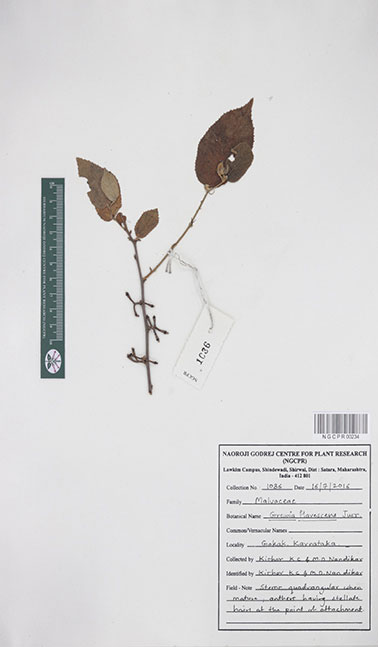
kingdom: Plantae
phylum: Tracheophyta
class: Magnoliopsida
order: Malvales
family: Malvaceae
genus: Grewia
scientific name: Grewia flavescens
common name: Sandpaper raisin
